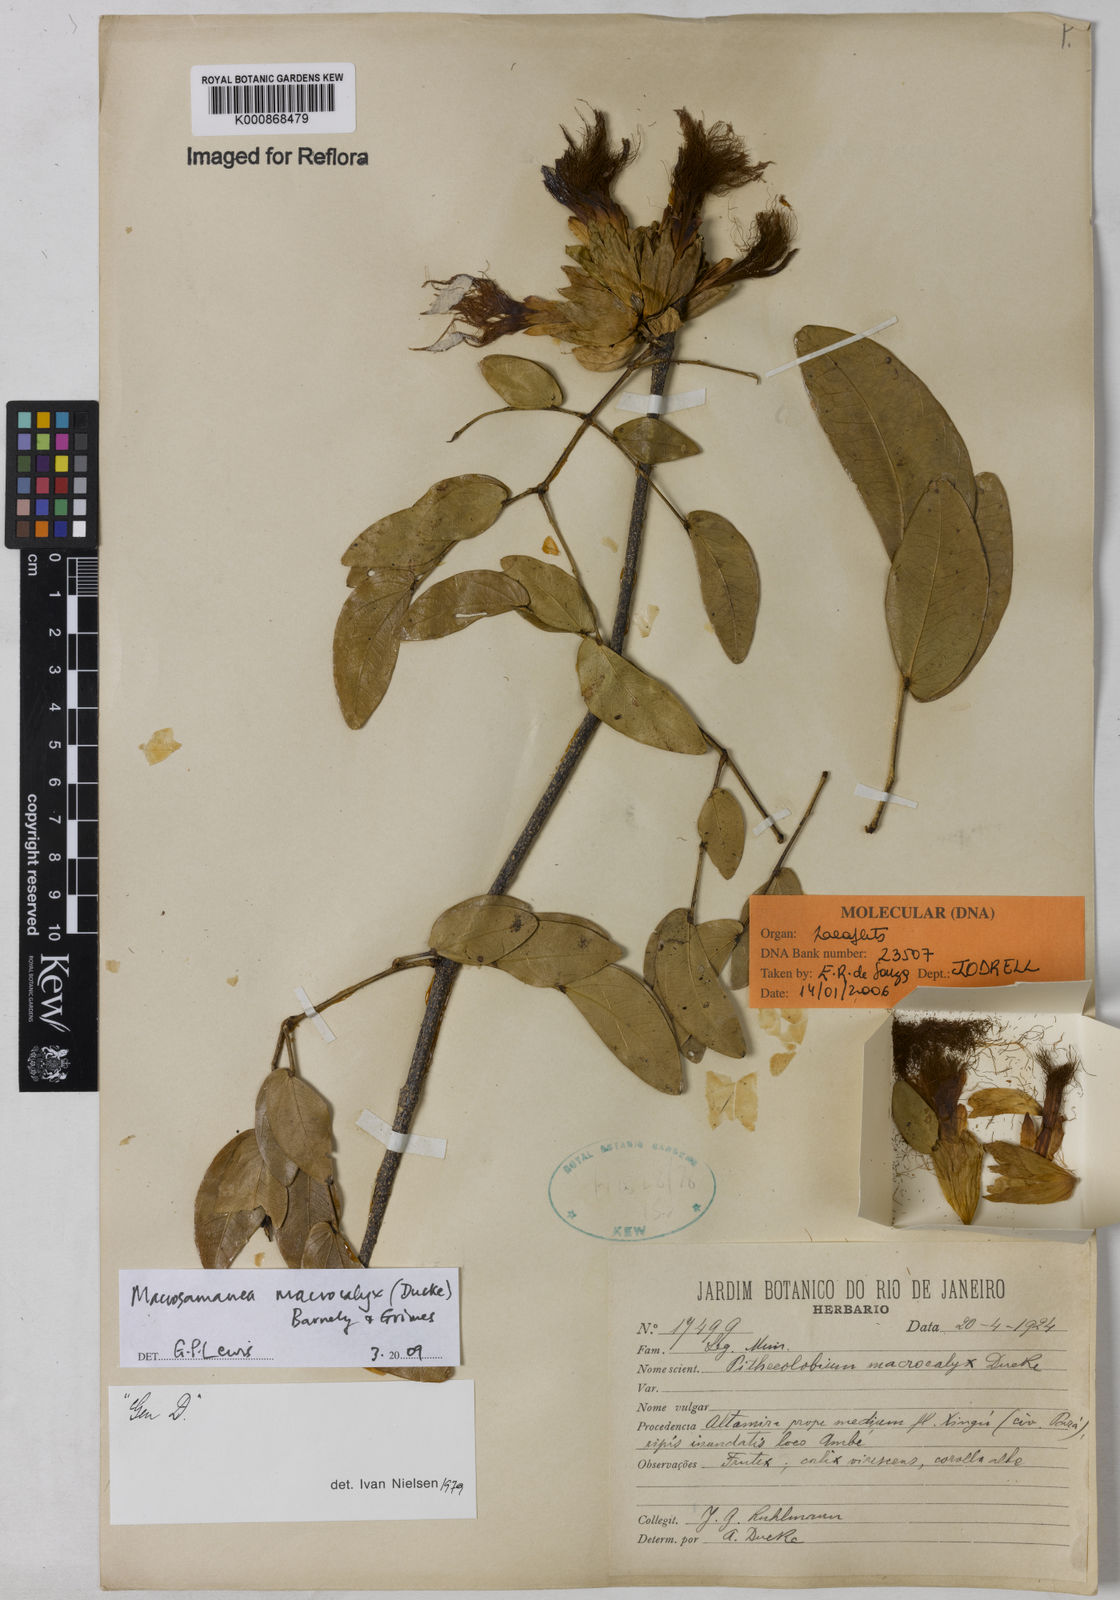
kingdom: Plantae
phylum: Tracheophyta
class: Magnoliopsida
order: Fabales
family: Fabaceae
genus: Macrosamanea
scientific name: Macrosamanea macrocalyx
